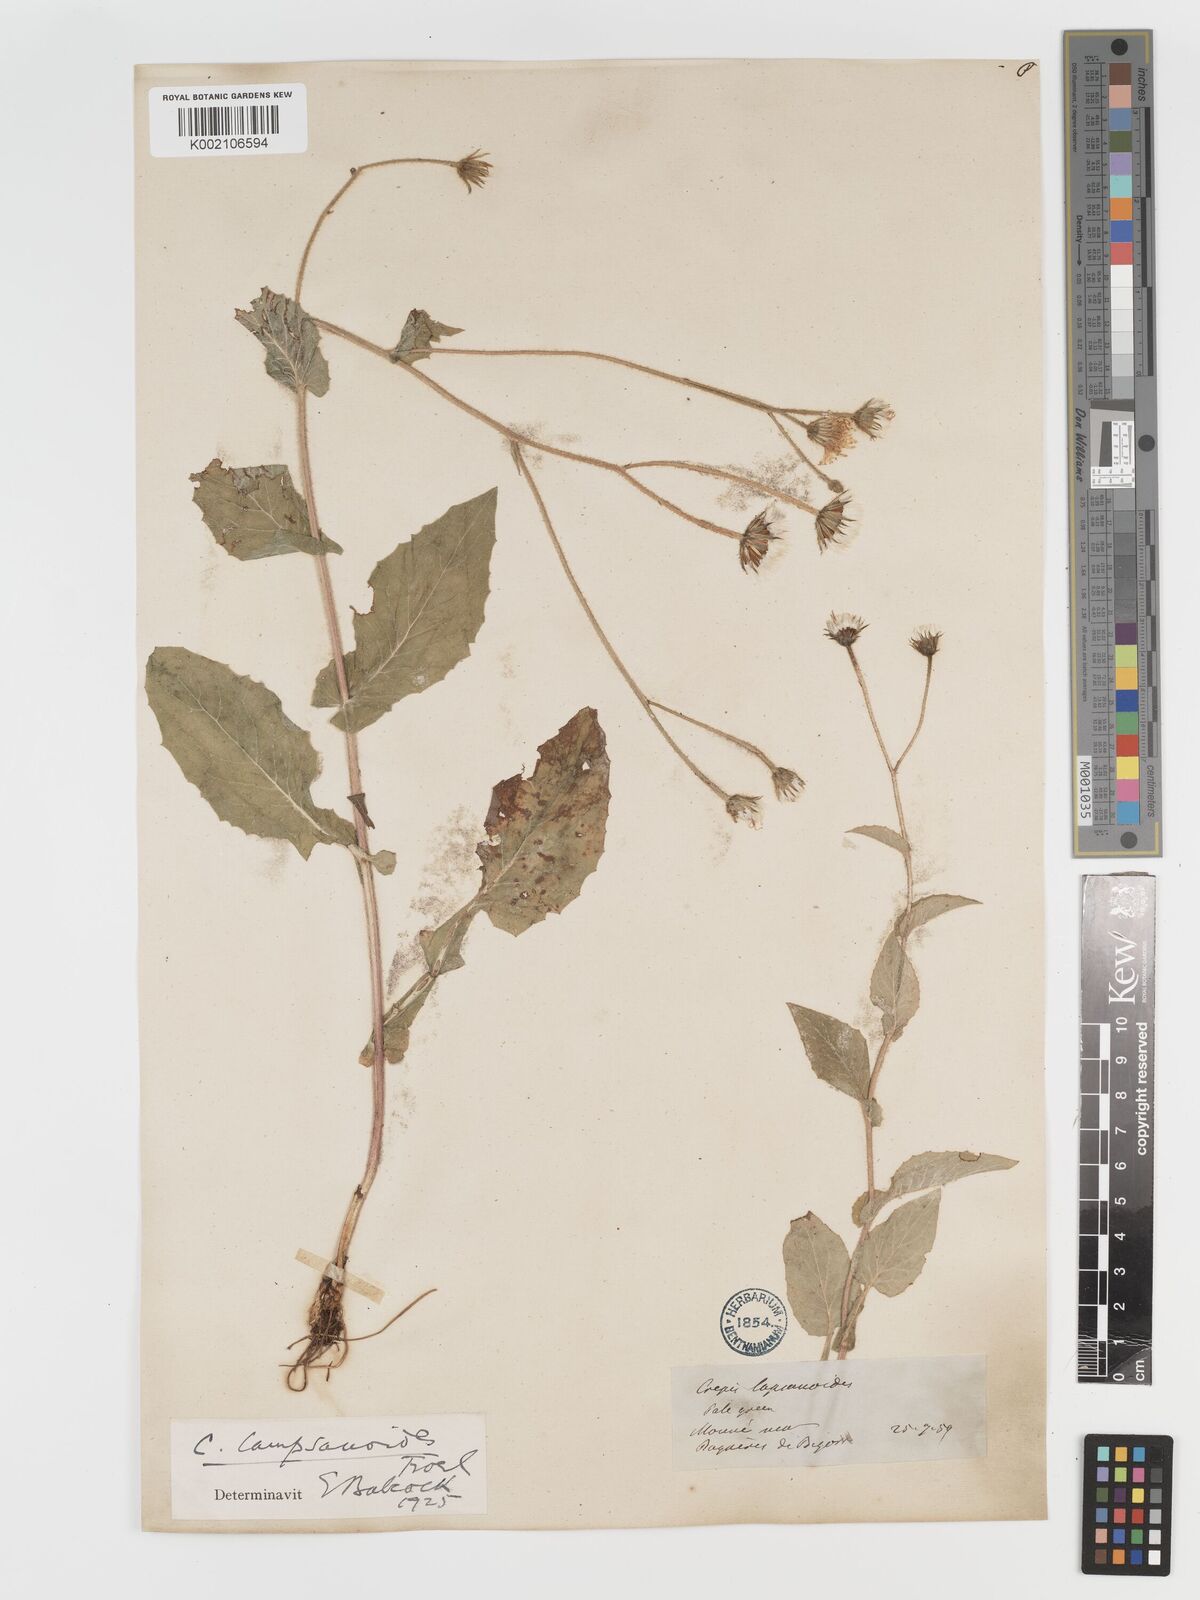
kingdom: Plantae
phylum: Tracheophyta
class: Magnoliopsida
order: Asterales
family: Asteraceae
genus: Crepis
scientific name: Crepis lampsanoides
